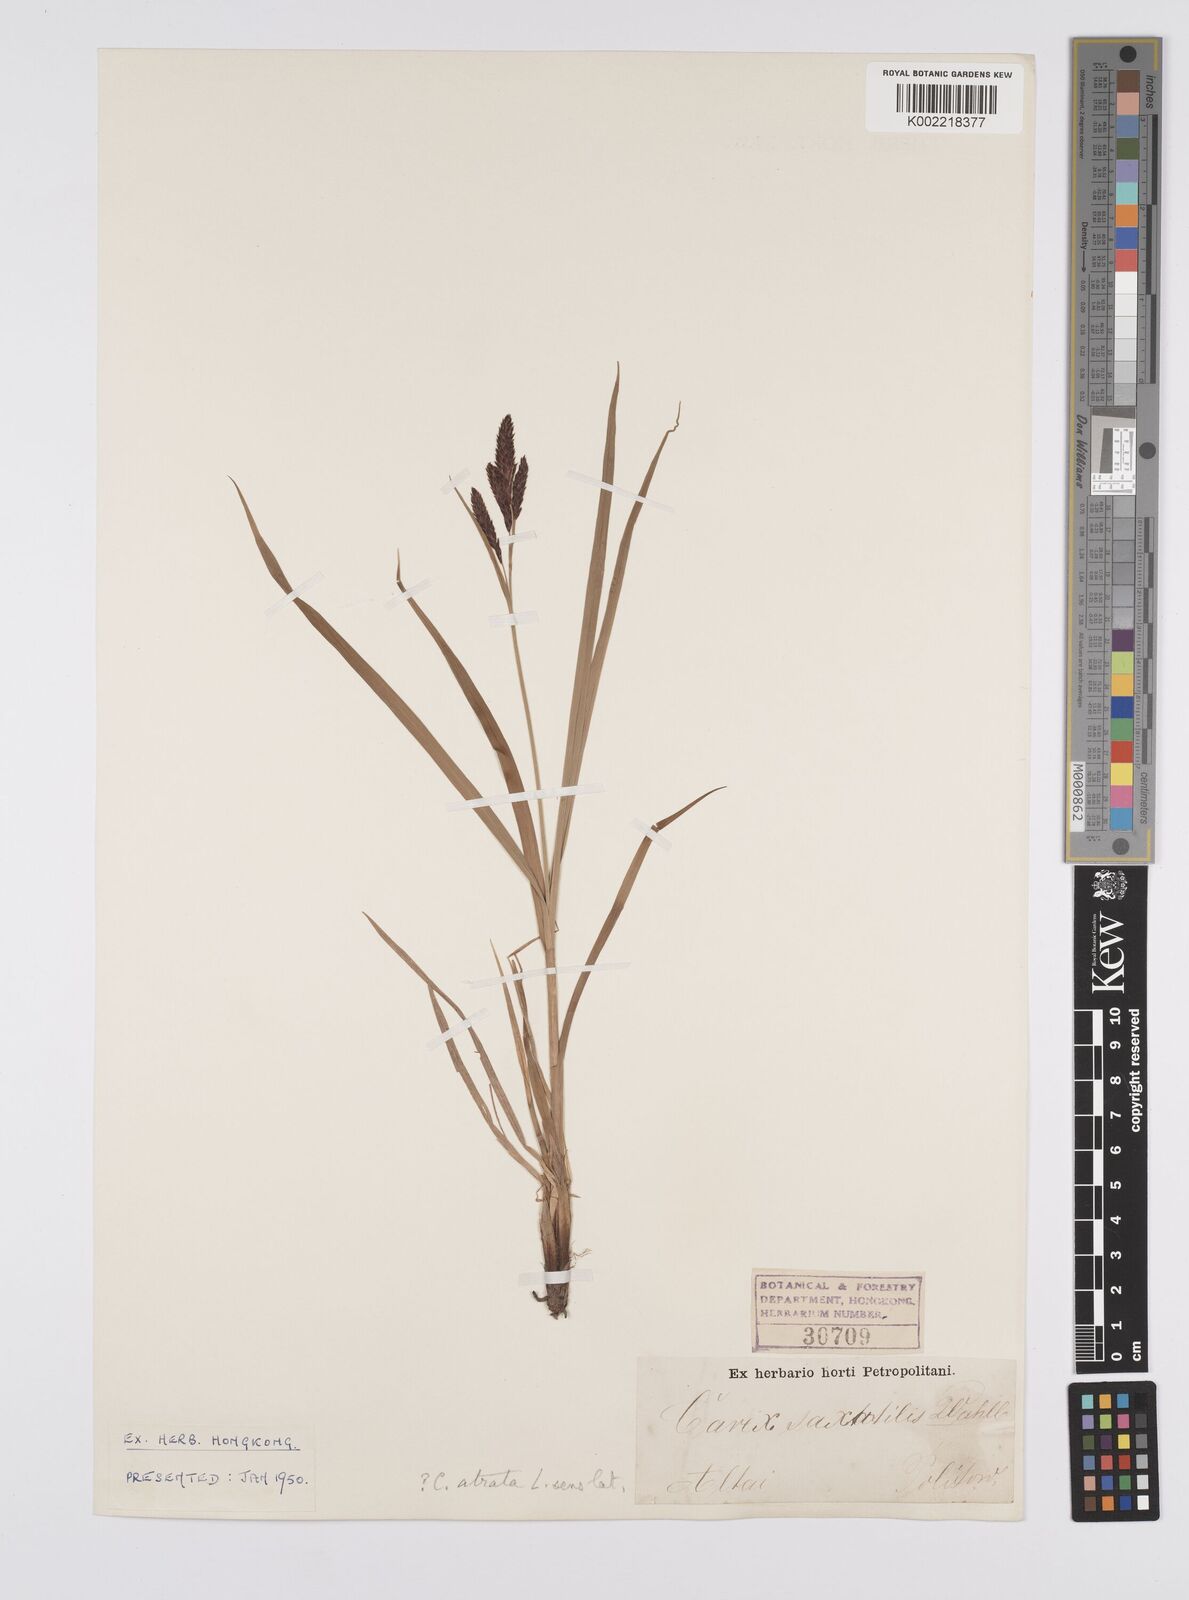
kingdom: Plantae
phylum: Tracheophyta
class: Liliopsida
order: Poales
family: Cyperaceae
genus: Carex
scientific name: Carex atrata
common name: Black alpine sedge
